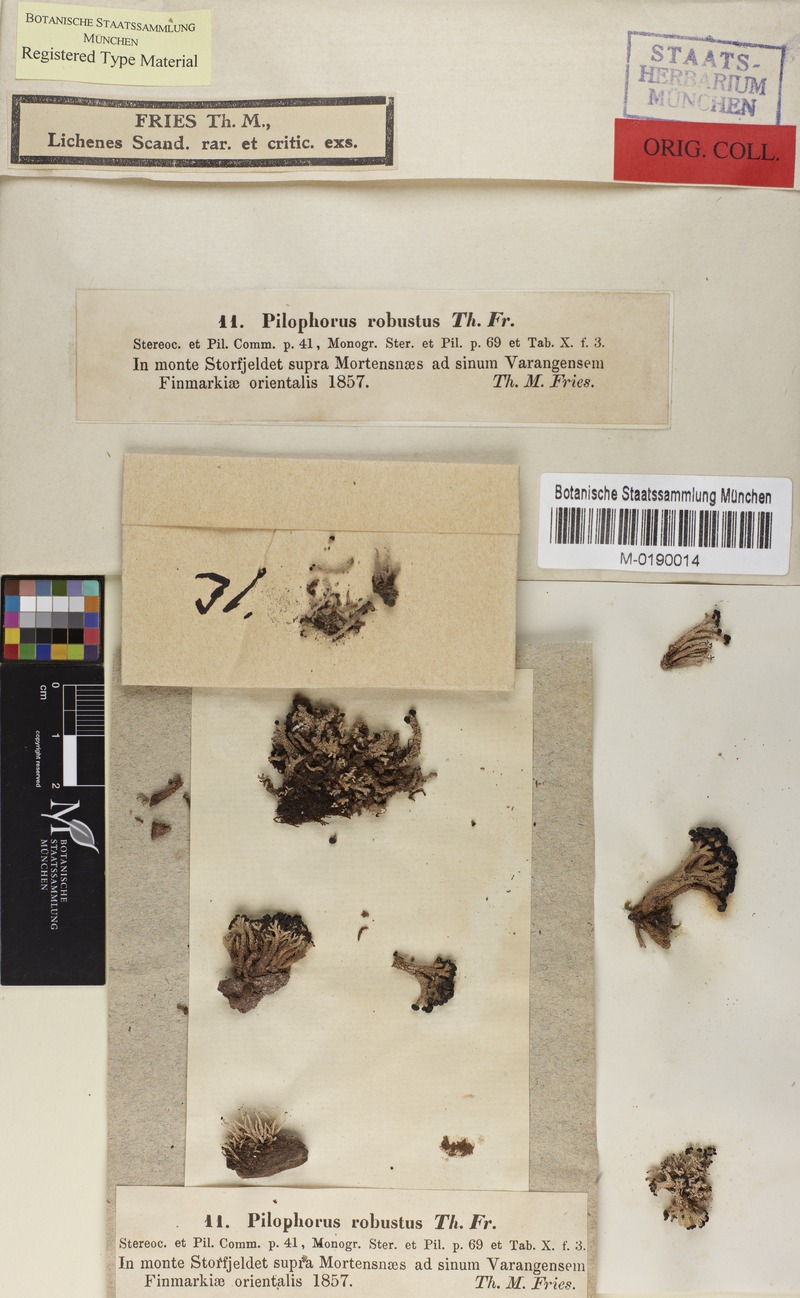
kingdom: Fungi
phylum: Ascomycota
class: Lecanoromycetes
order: Lecanorales
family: Cladoniaceae
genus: Pilophorus
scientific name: Pilophorus robustus
